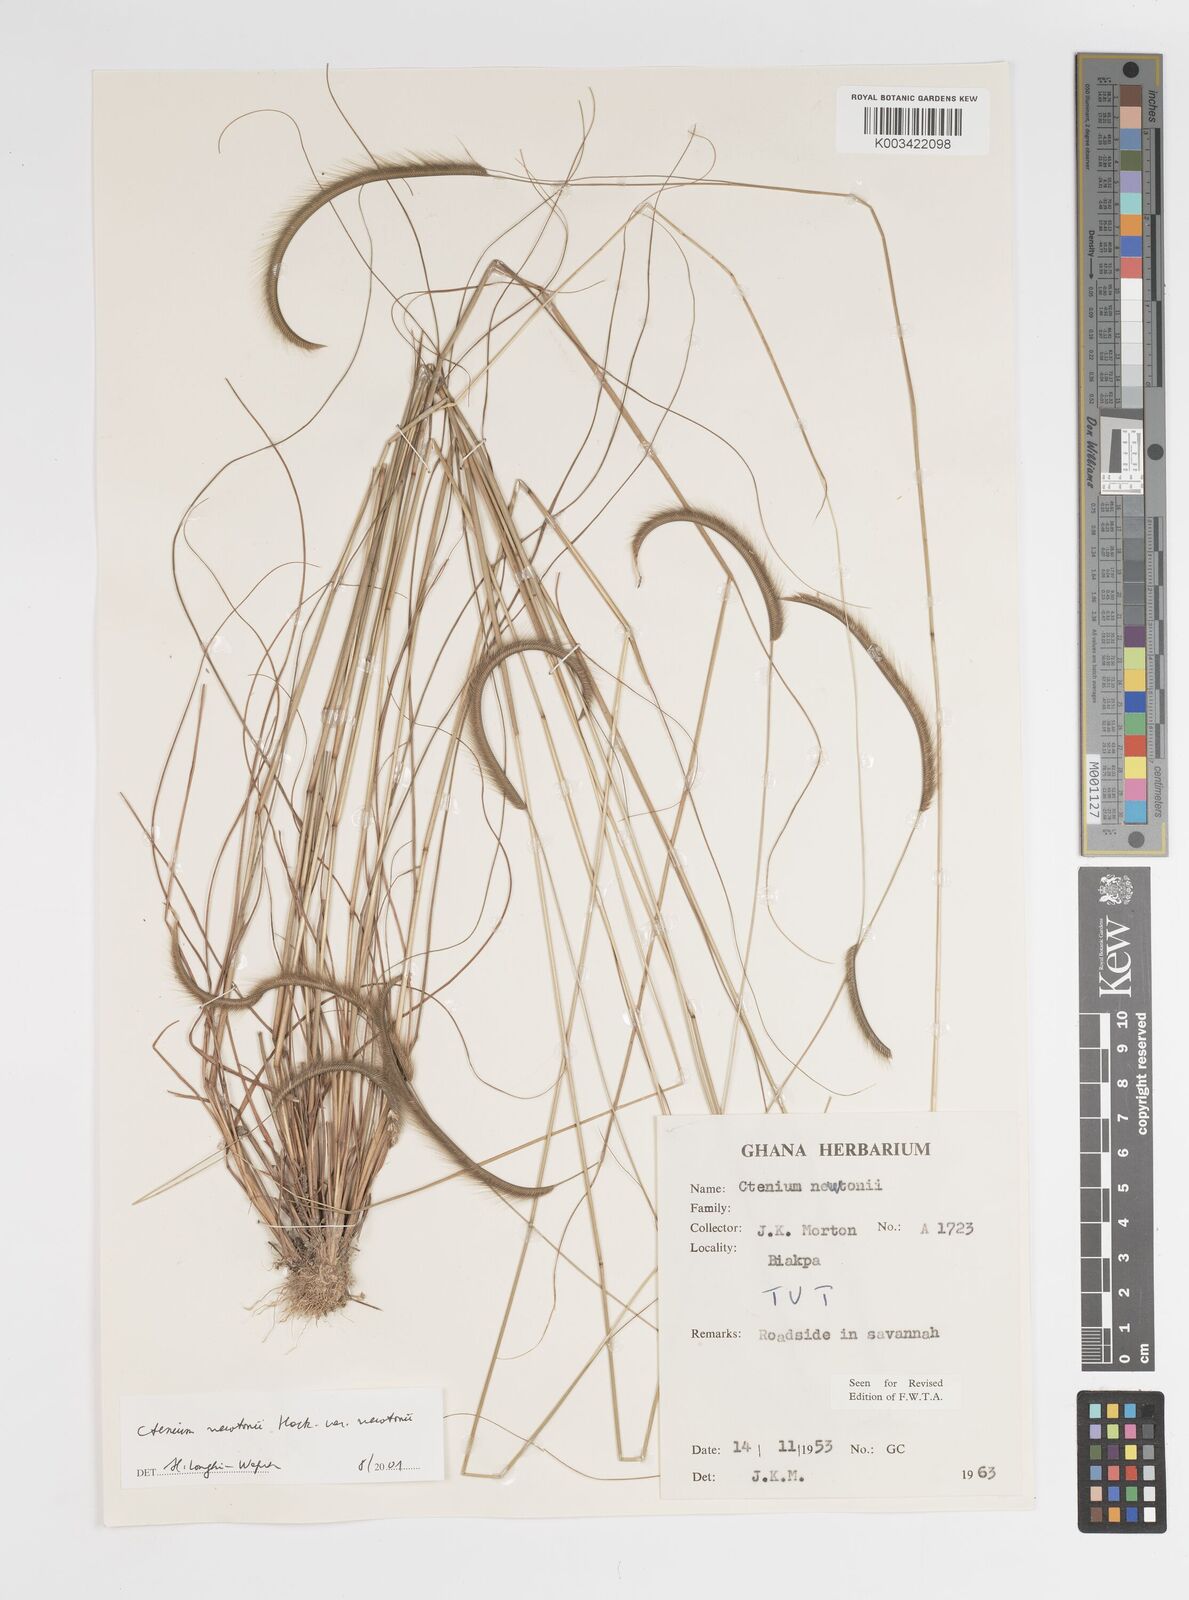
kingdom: Plantae
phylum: Tracheophyta
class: Liliopsida
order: Poales
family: Poaceae
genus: Ctenium
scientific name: Ctenium newtonii
